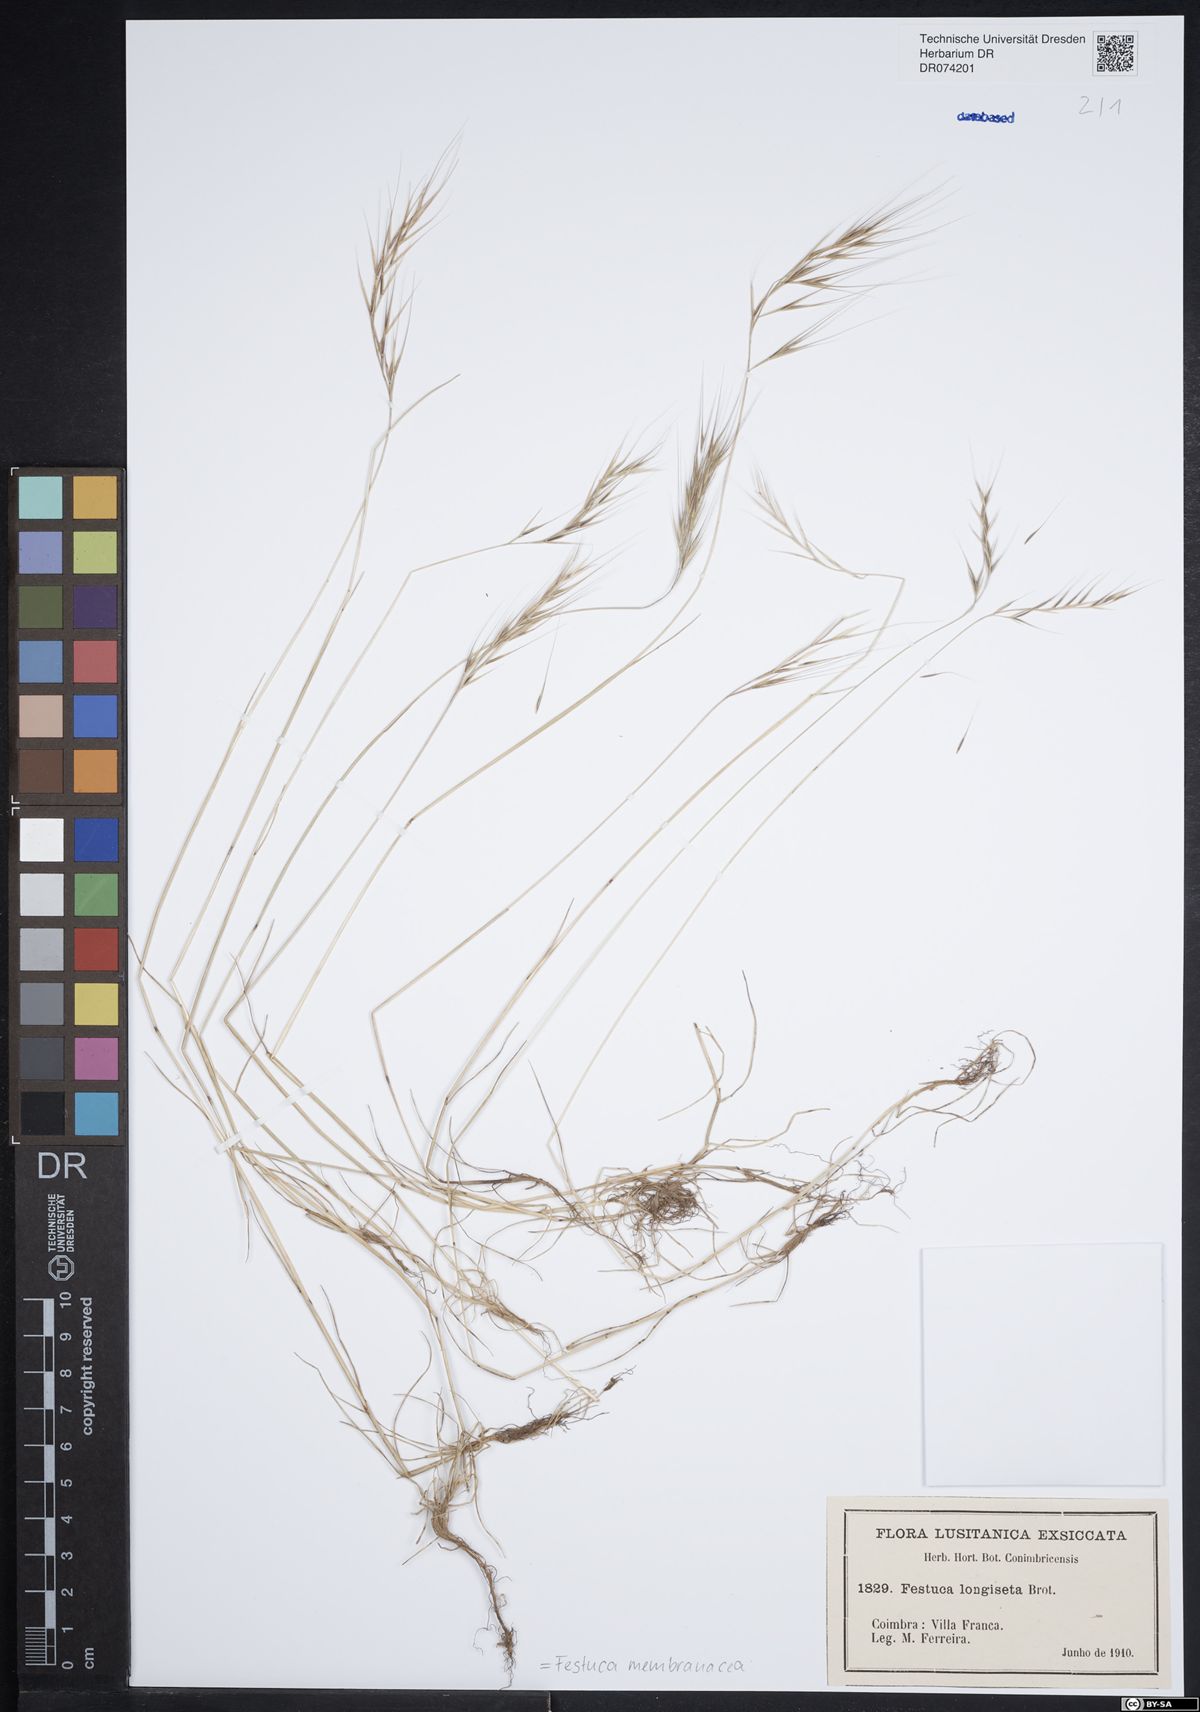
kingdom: Plantae
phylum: Tracheophyta
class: Liliopsida
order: Poales
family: Poaceae
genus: Festuca
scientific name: Festuca membranacea
